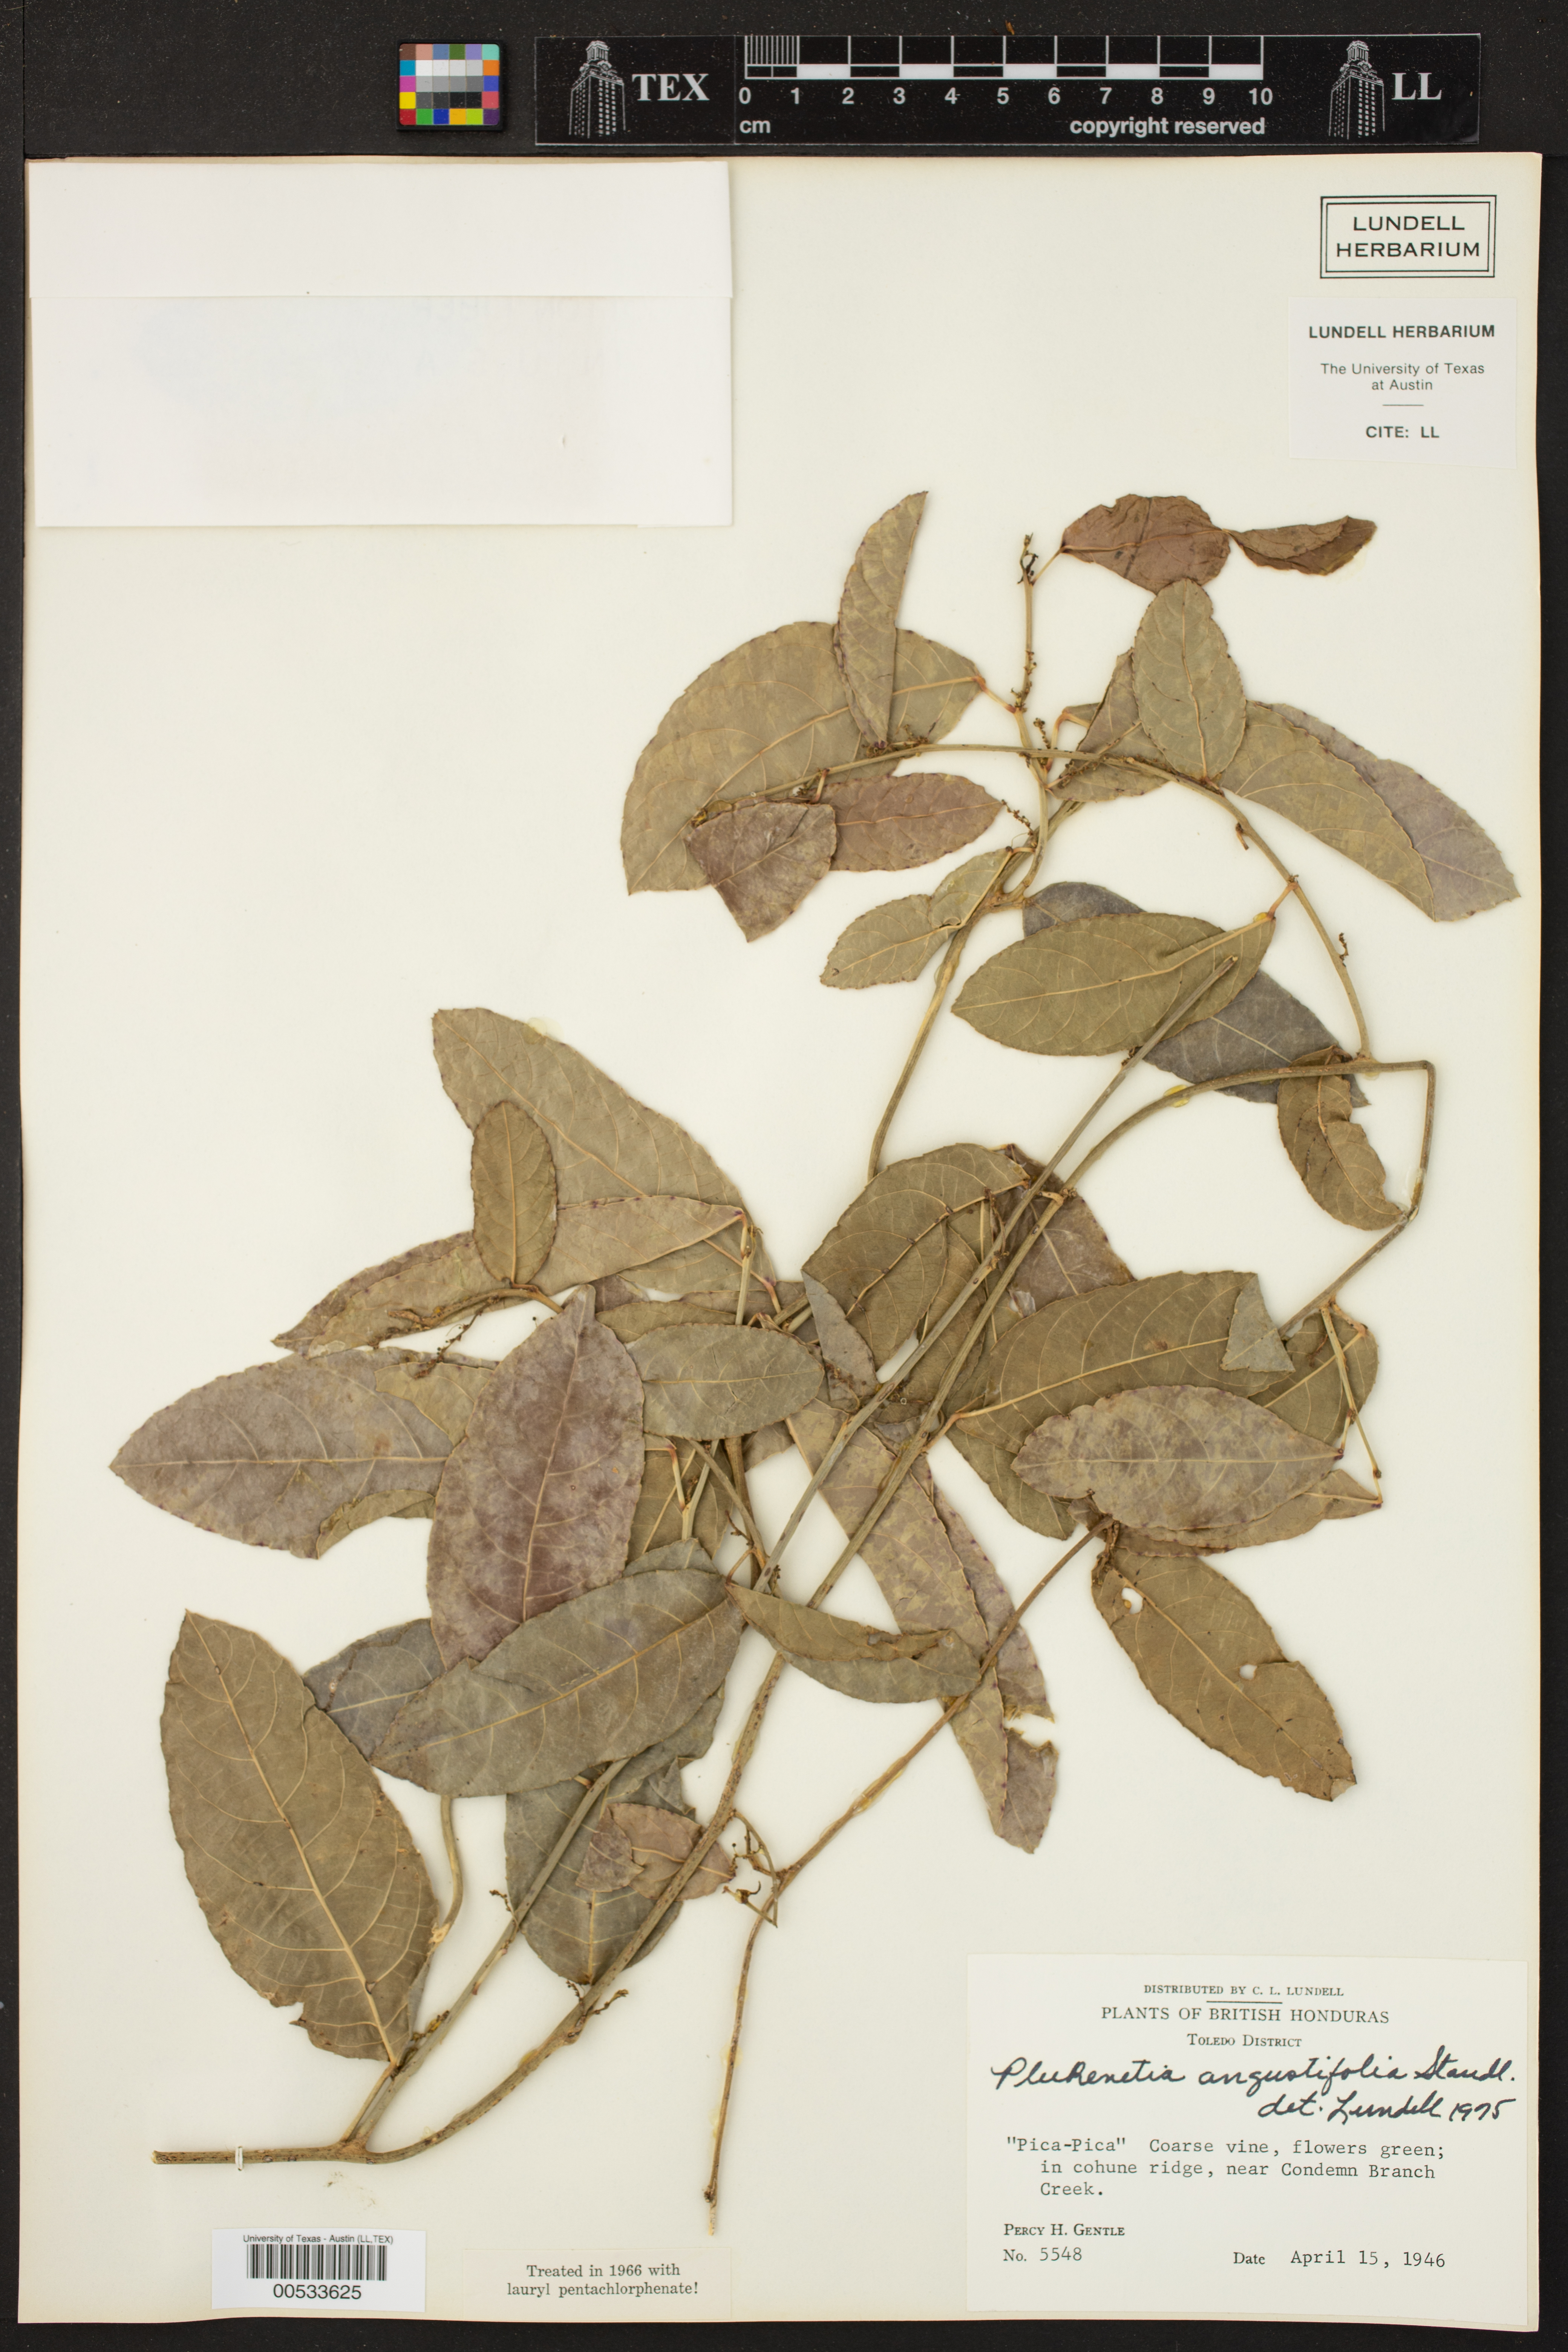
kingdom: Plantae
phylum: Tracheophyta
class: Magnoliopsida
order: Malpighiales
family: Euphorbiaceae
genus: Plukenetia
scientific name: Plukenetia penninervia
